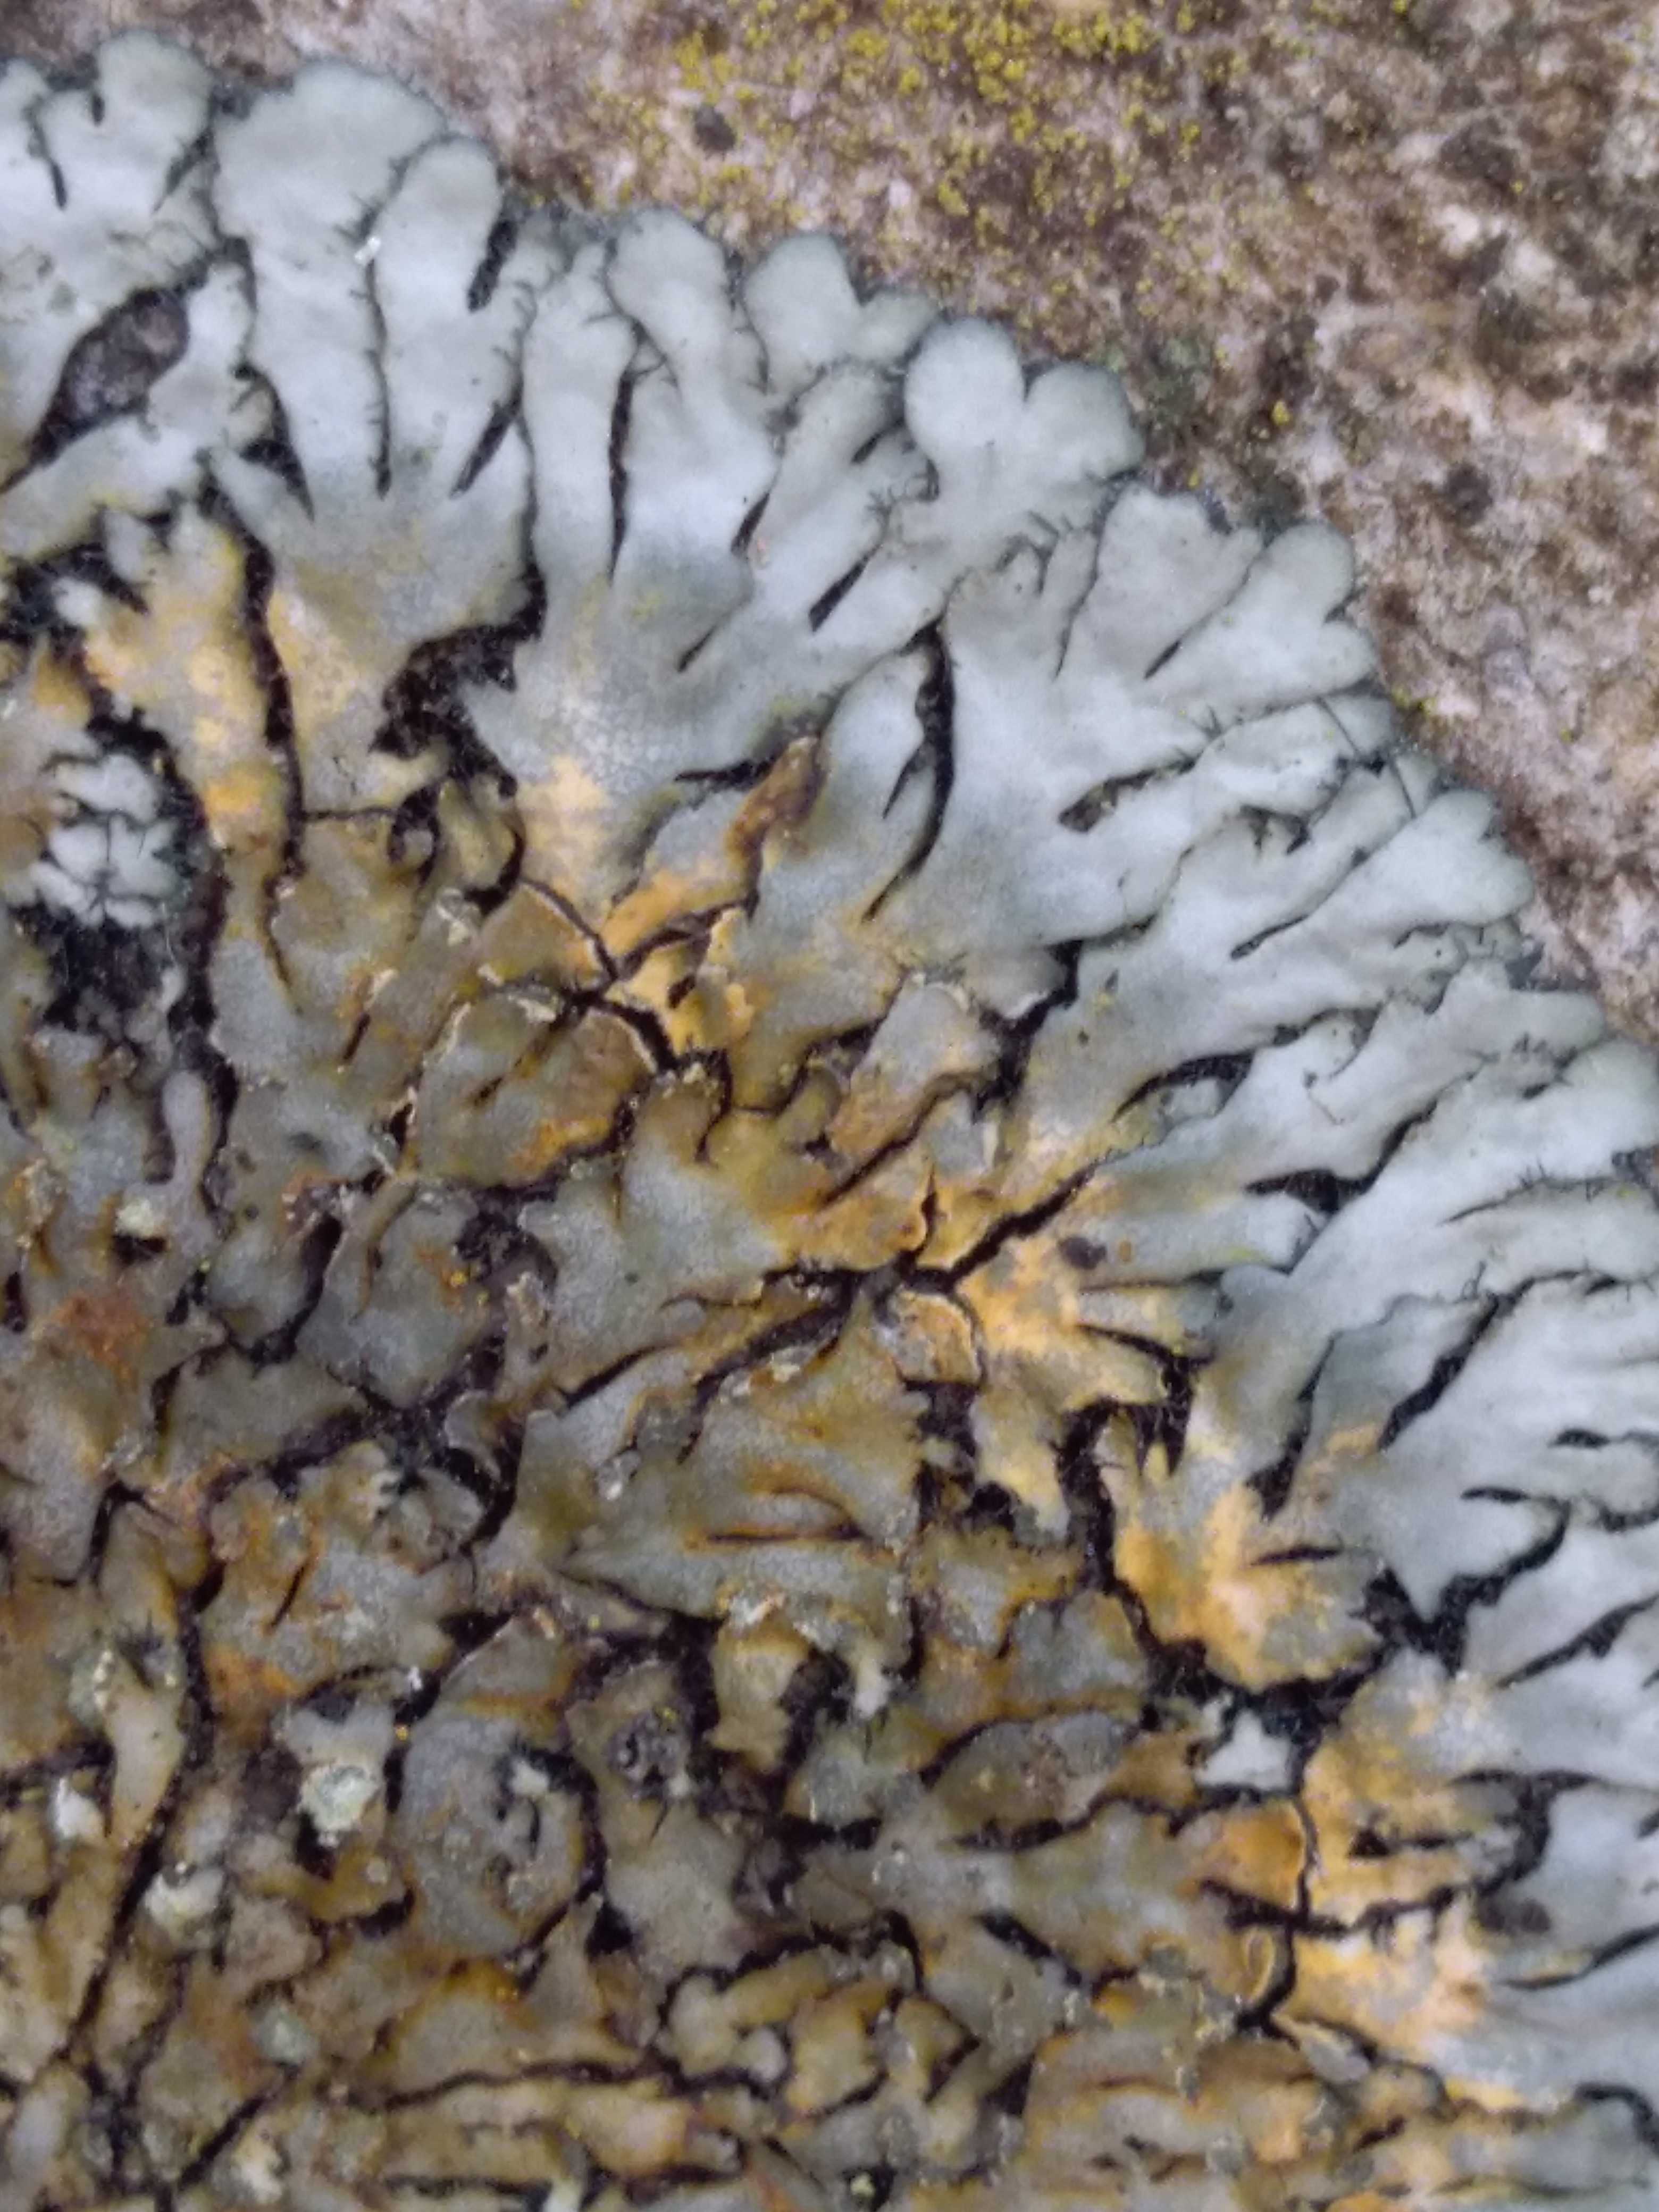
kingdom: Fungi
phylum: Ascomycota
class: Lecanoromycetes
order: Caliciales
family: Physciaceae
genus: Phaeophyscia
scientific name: Phaeophyscia orbicularis
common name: grågrøn rosetlav
